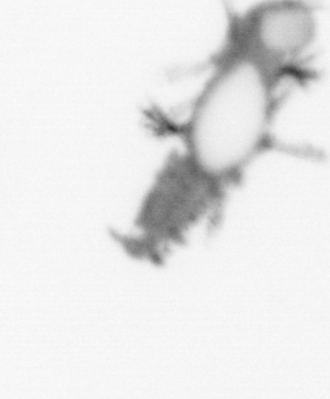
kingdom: Animalia
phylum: Annelida
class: Polychaeta
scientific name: Polychaeta
